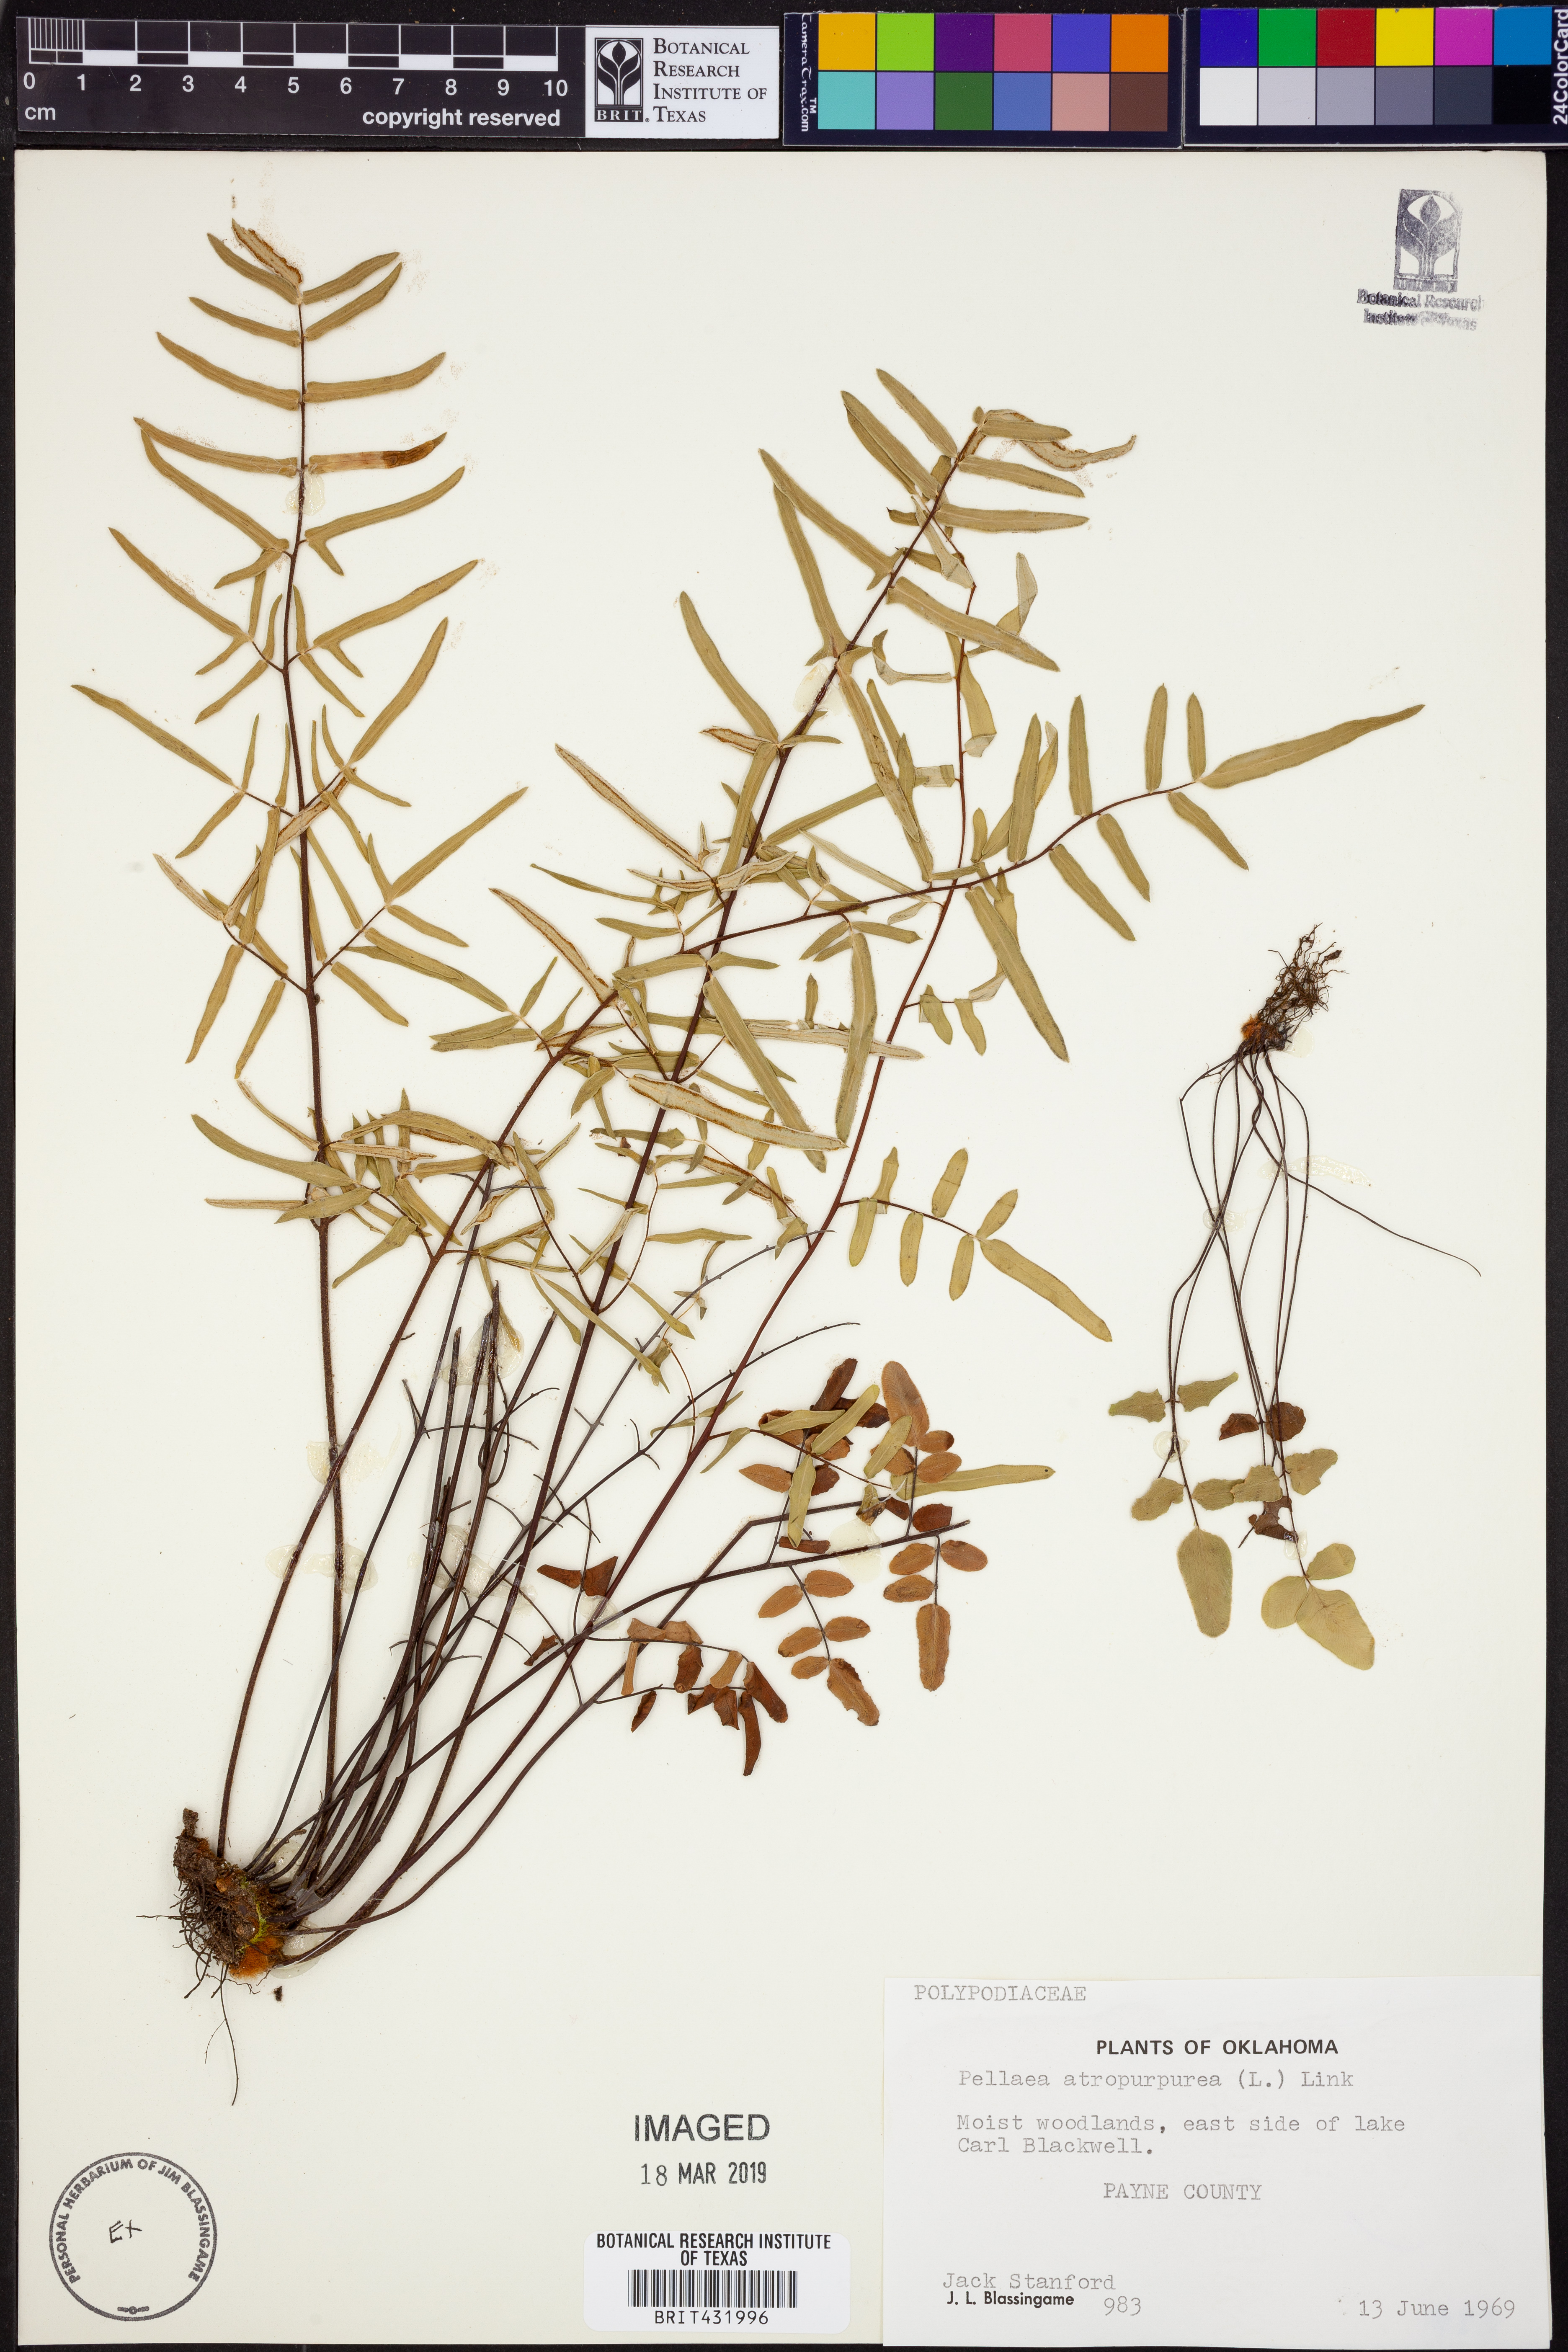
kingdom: Plantae
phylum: Tracheophyta
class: Polypodiopsida
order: Polypodiales
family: Pteridaceae
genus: Pellaea
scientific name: Pellaea atropurpurea
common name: Hairy cliffbrake
